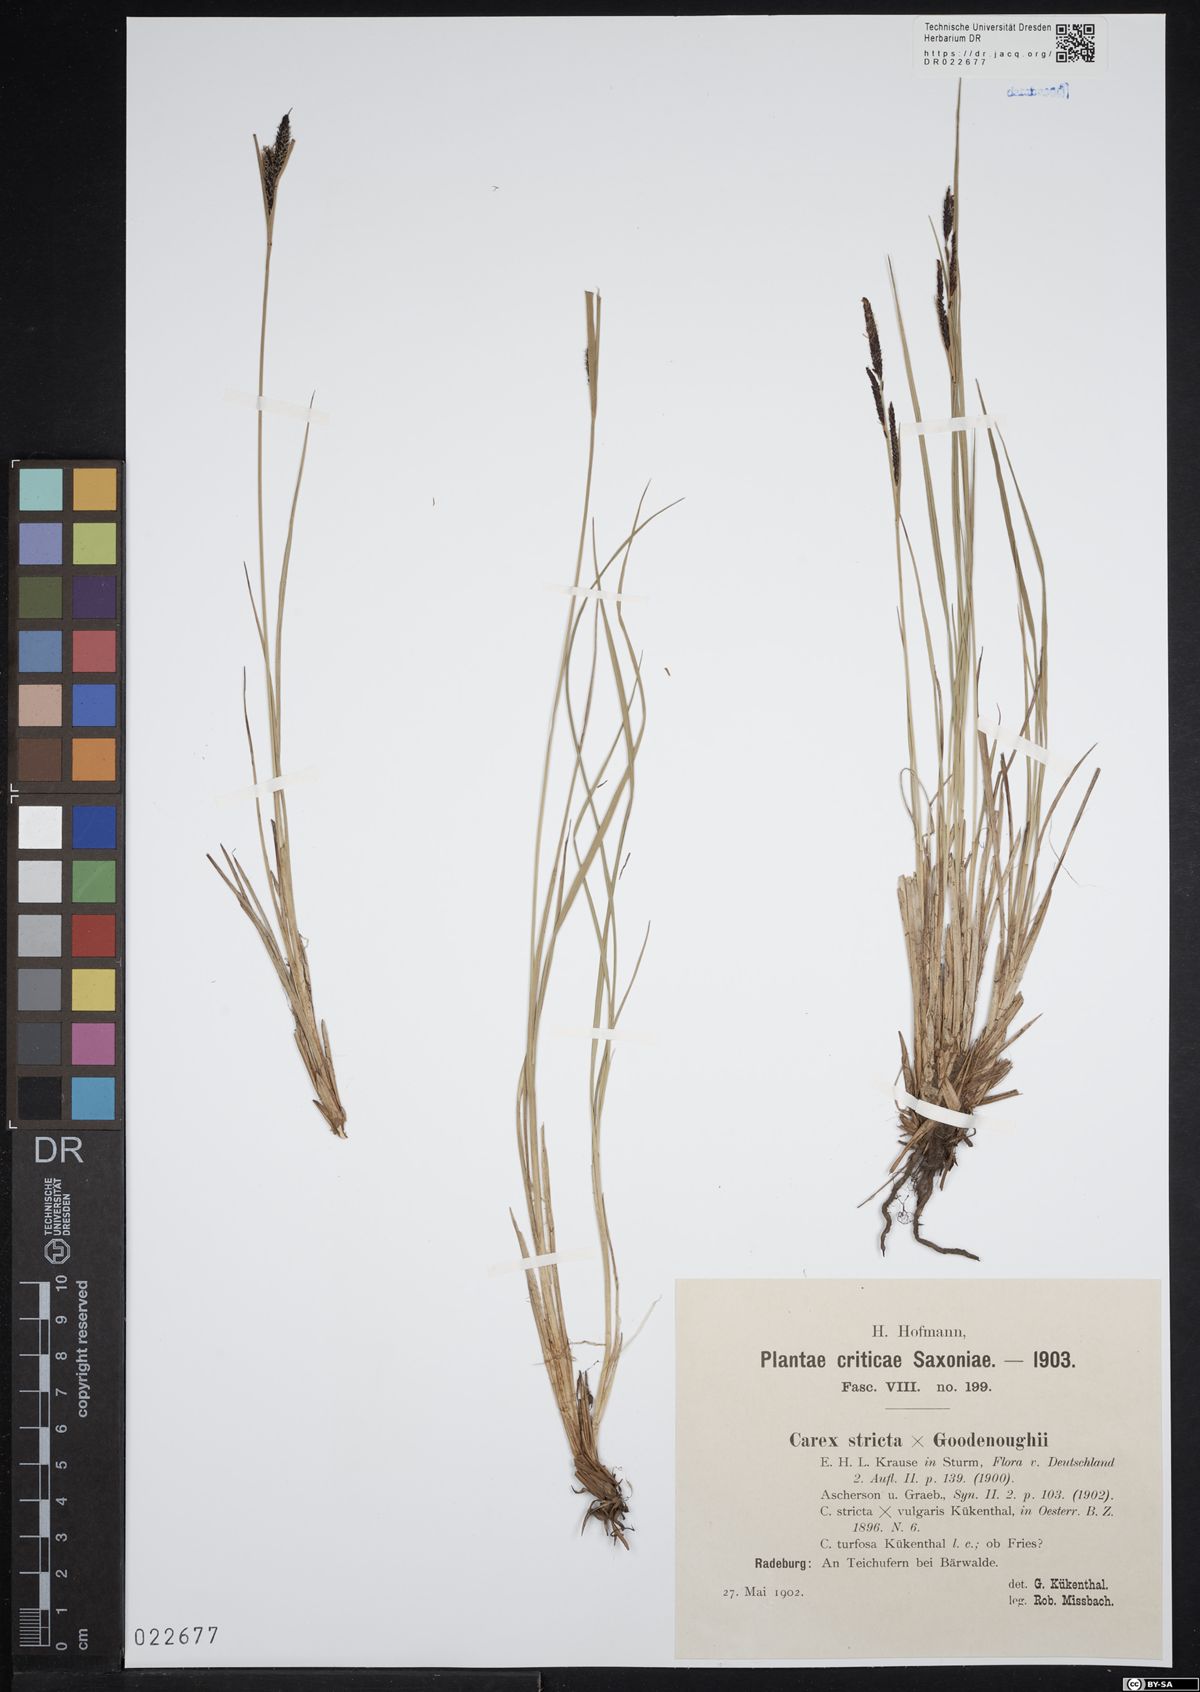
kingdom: Plantae
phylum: Tracheophyta
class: Liliopsida
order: Poales
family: Cyperaceae
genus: Carex
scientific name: Carex turfosa
